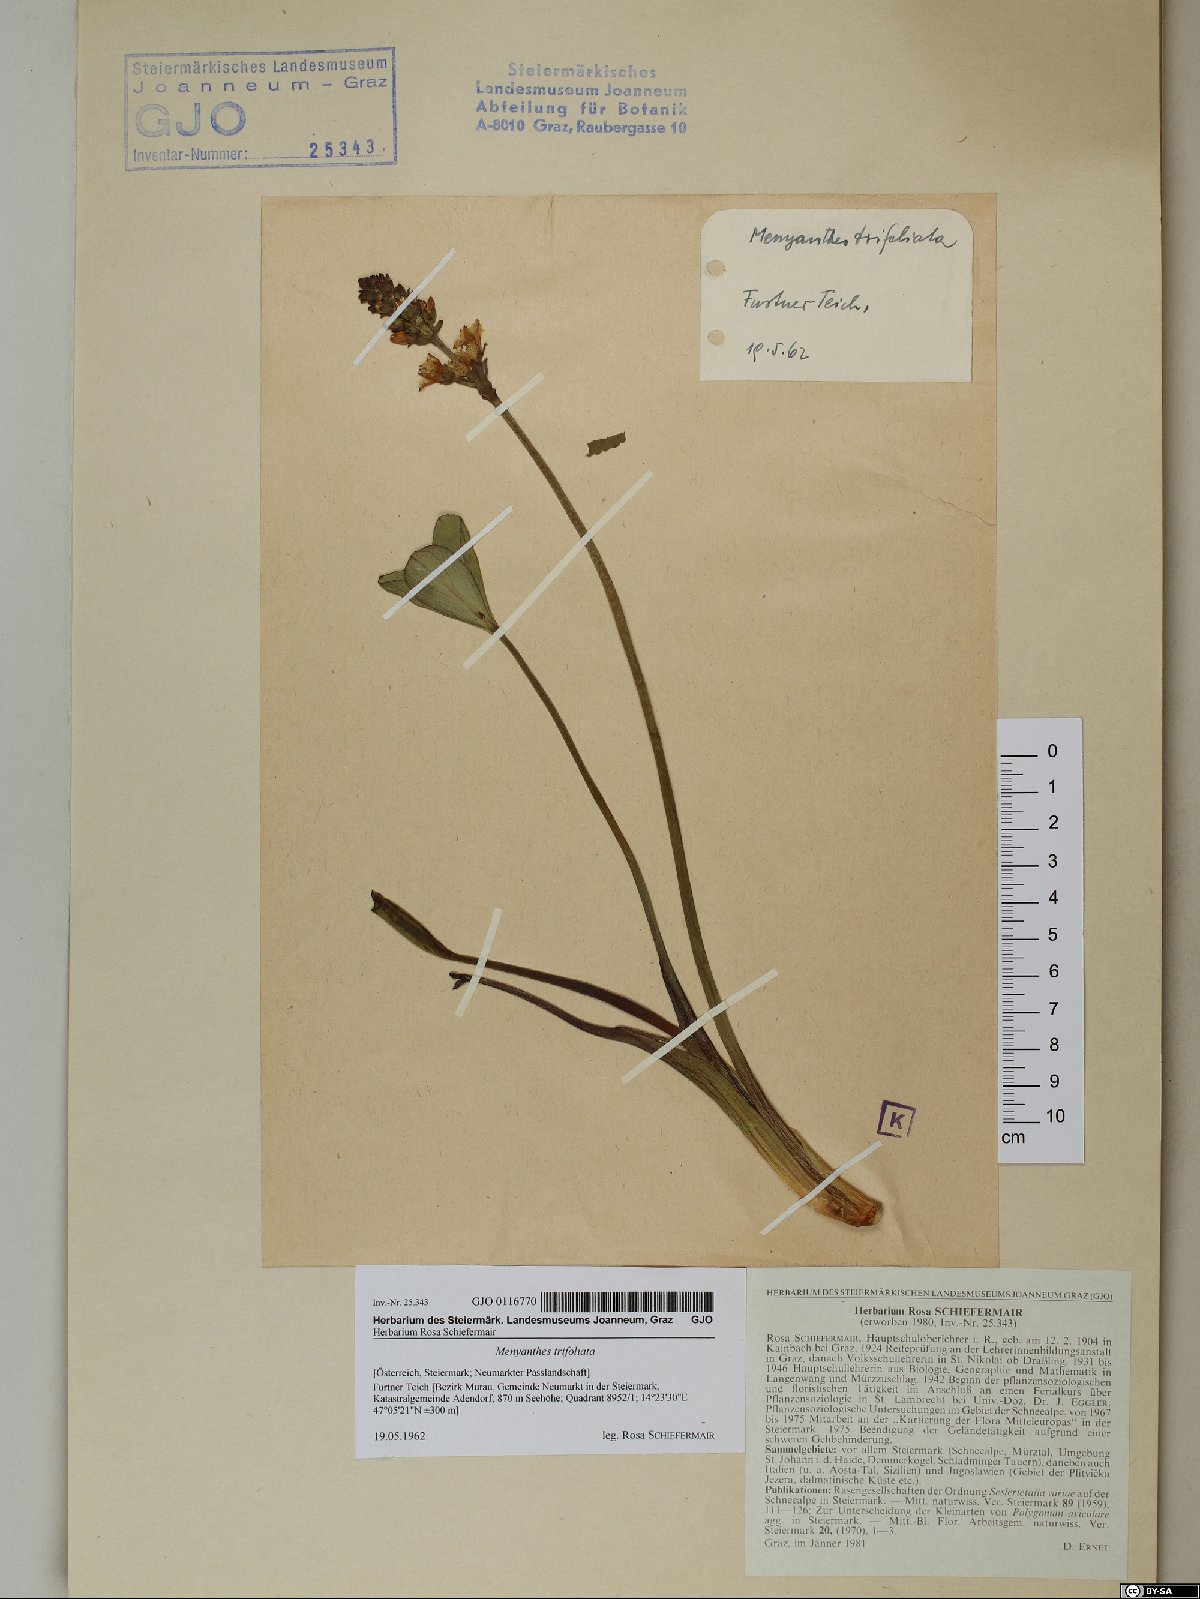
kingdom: Plantae
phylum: Tracheophyta
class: Magnoliopsida
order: Asterales
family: Menyanthaceae
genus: Menyanthes
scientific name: Menyanthes trifoliata
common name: Bogbean
